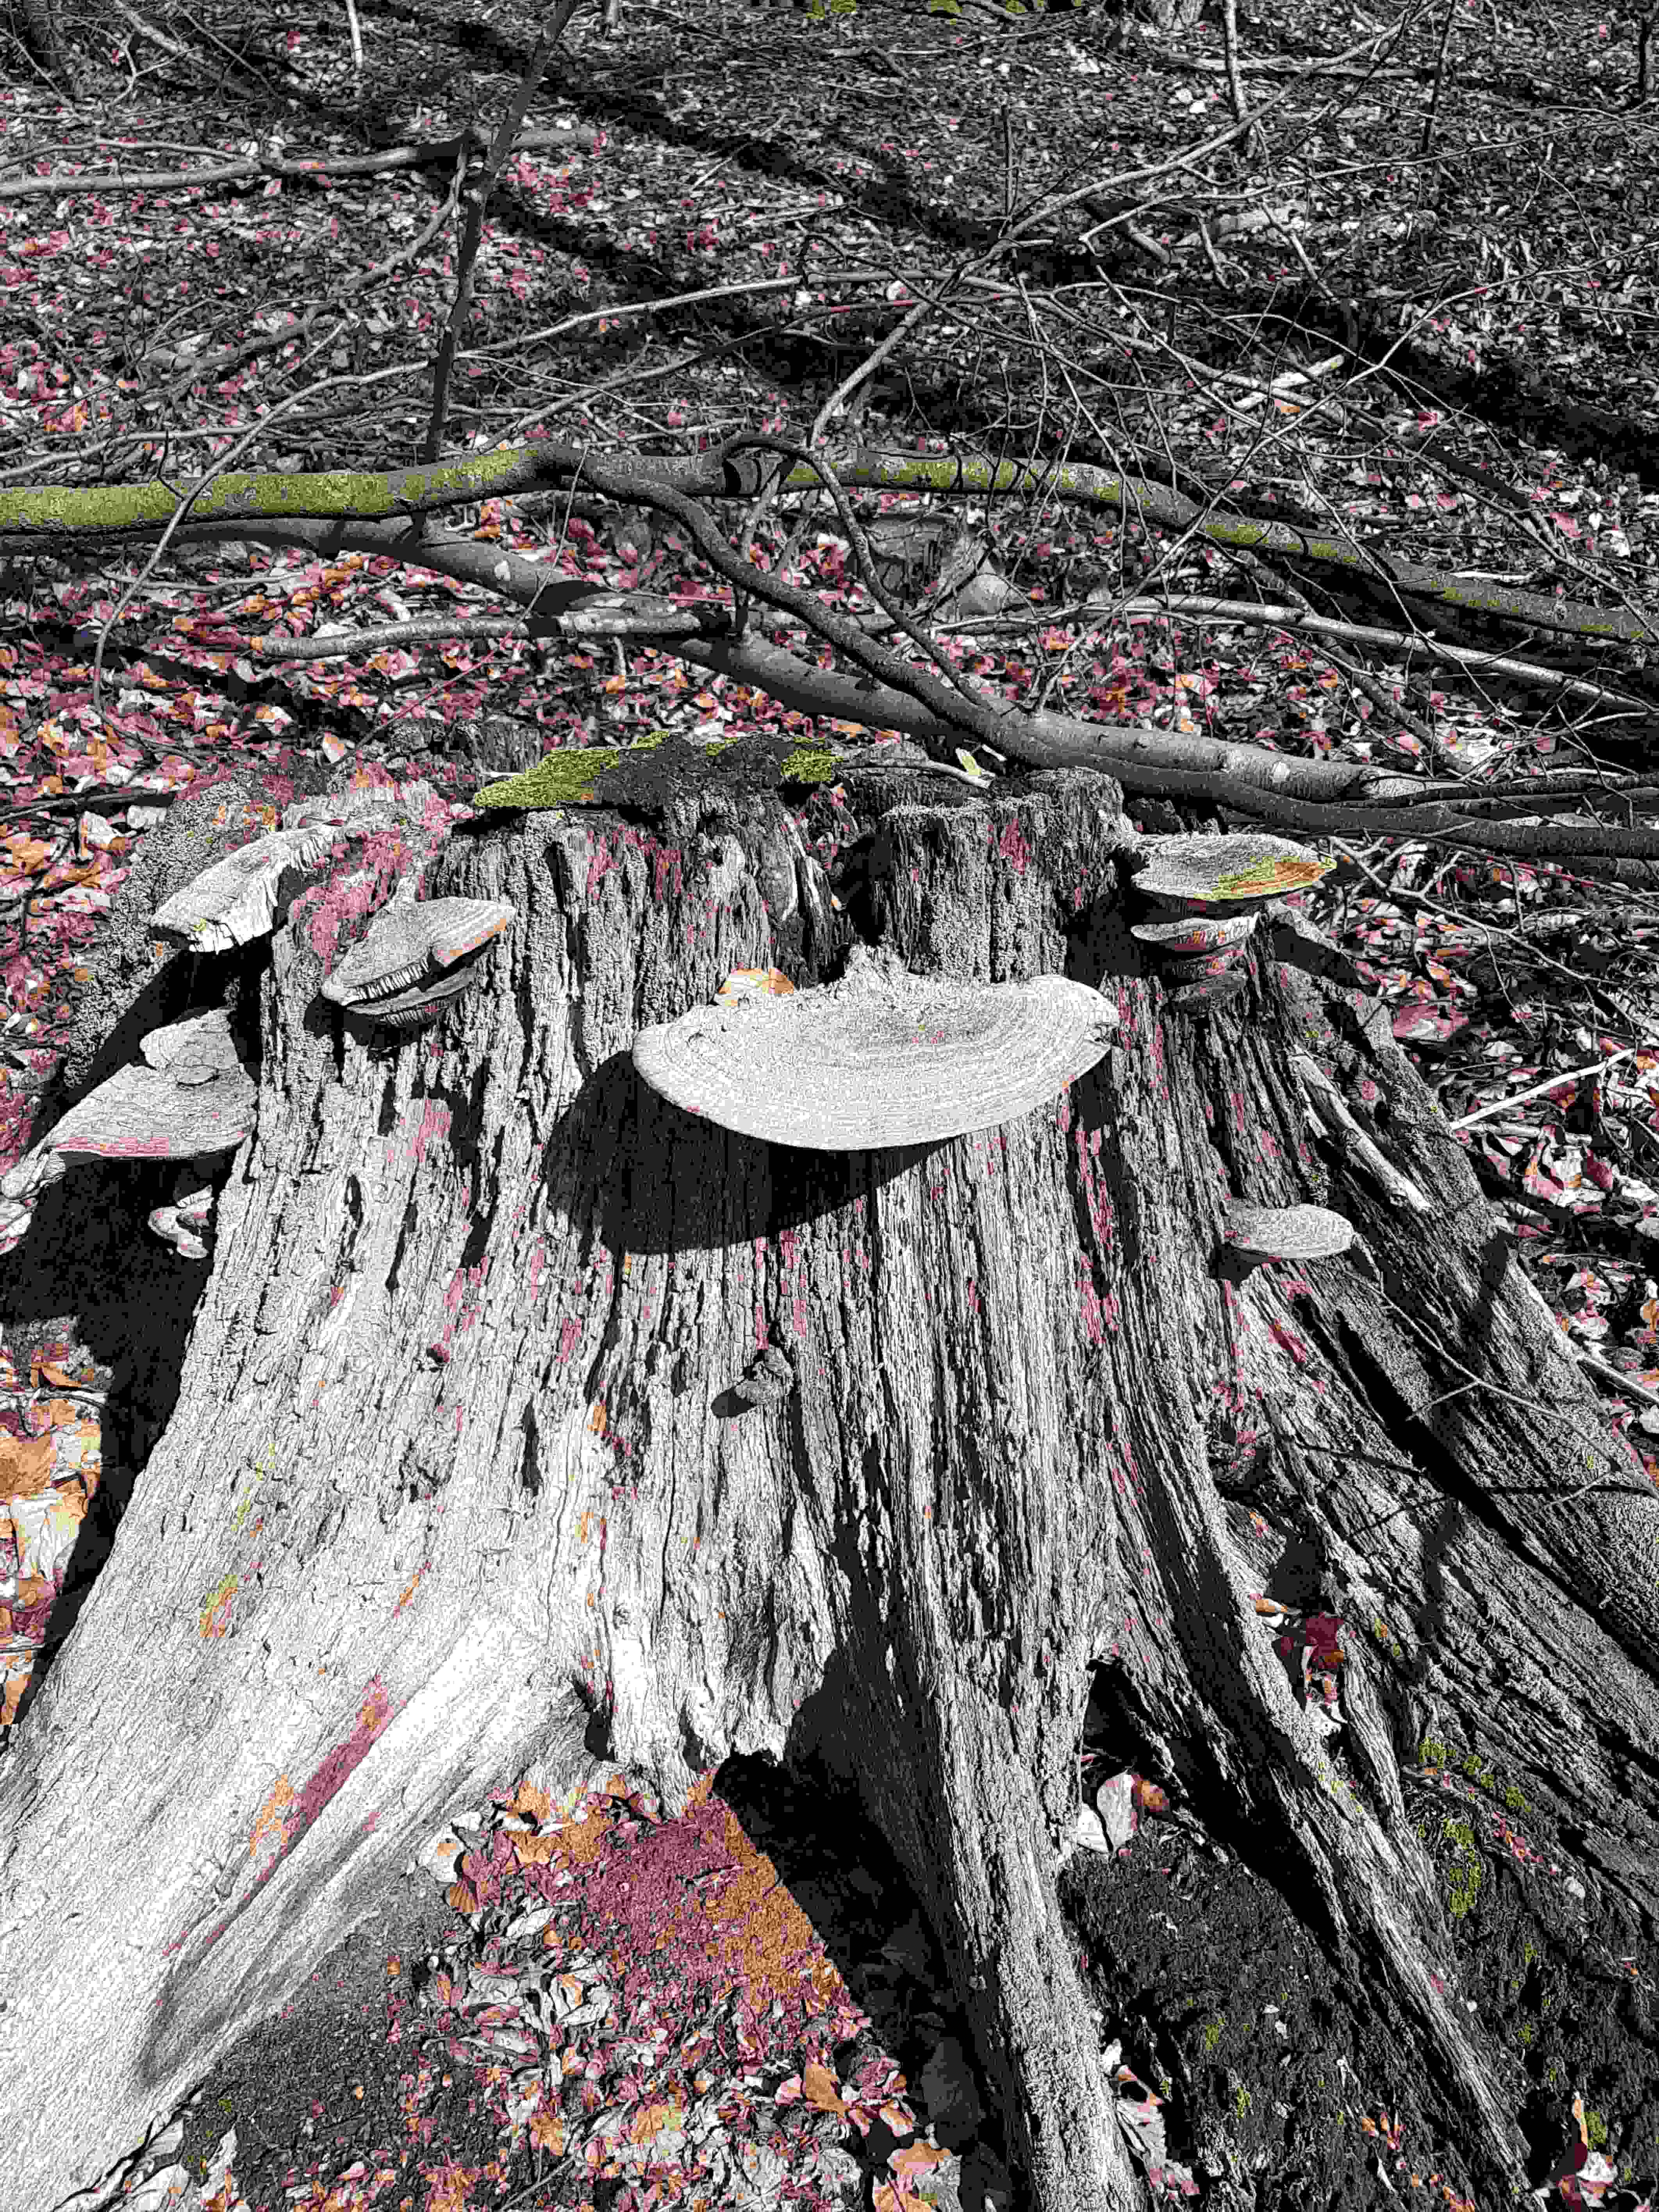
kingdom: Fungi
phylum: Basidiomycota
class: Agaricomycetes
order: Polyporales
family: Fomitopsidaceae
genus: Daedalea
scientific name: Daedalea quercina
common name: ege-labyrintsvamp
